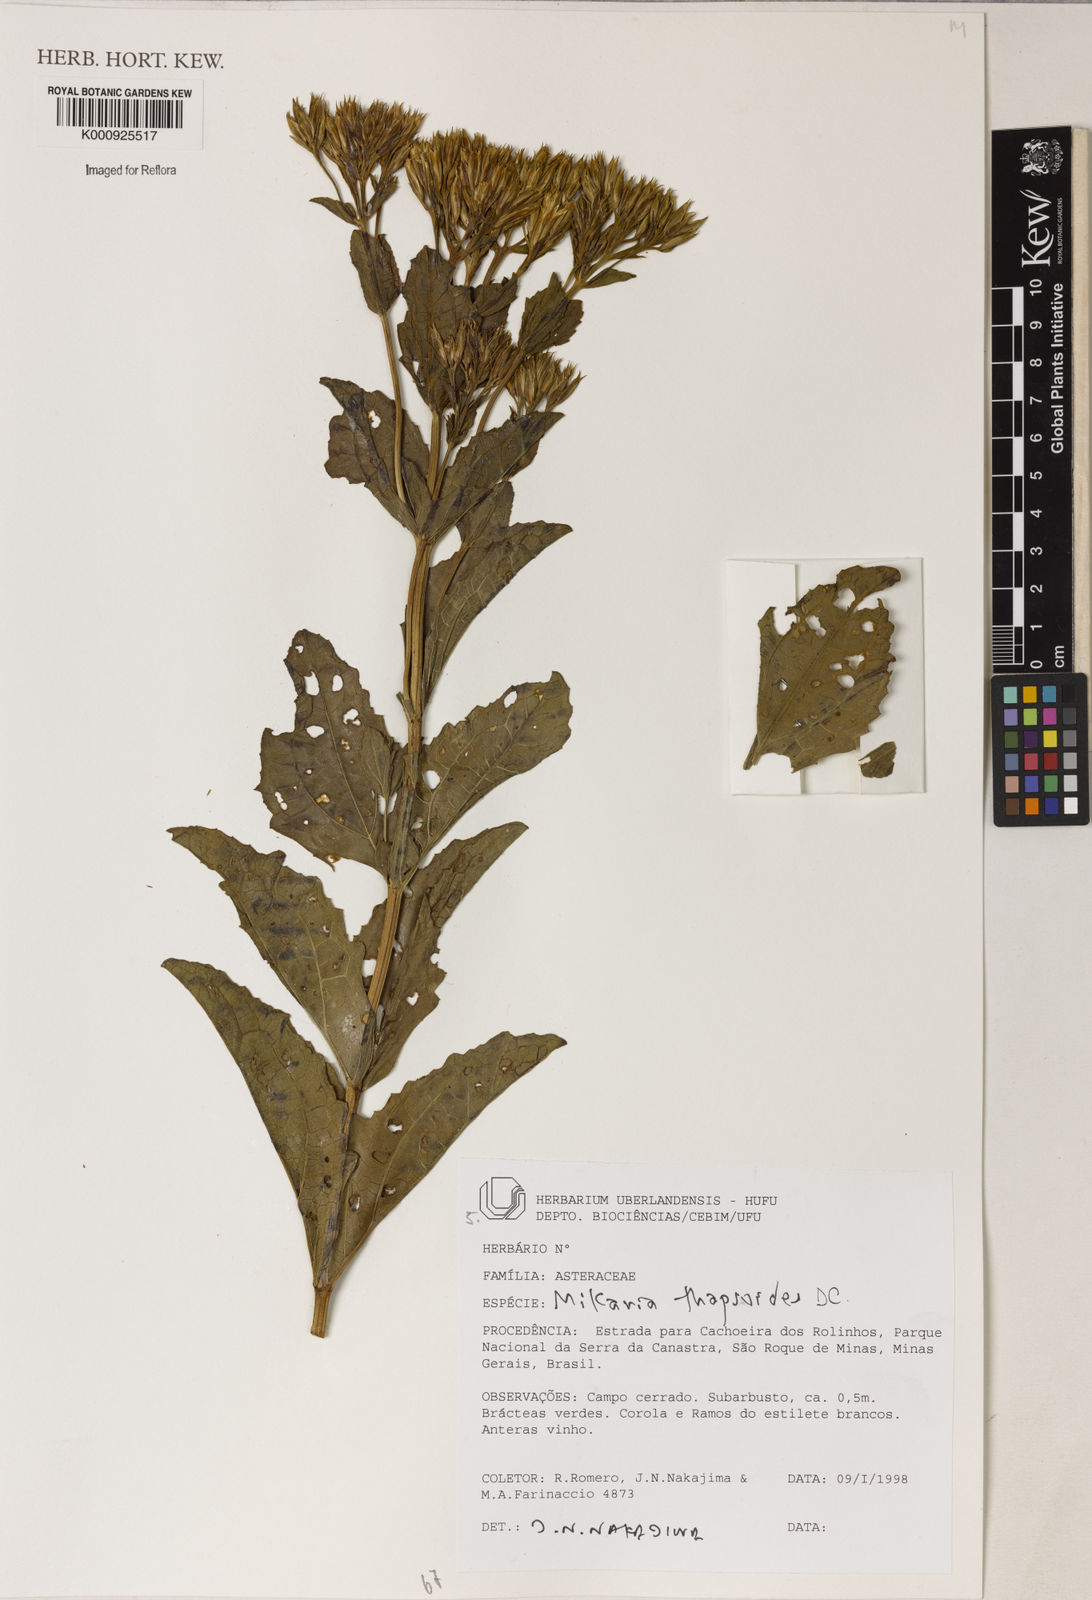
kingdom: Plantae
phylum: Tracheophyta
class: Magnoliopsida
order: Asterales
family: Asteraceae
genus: Mikania
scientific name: Mikania thapsoides
